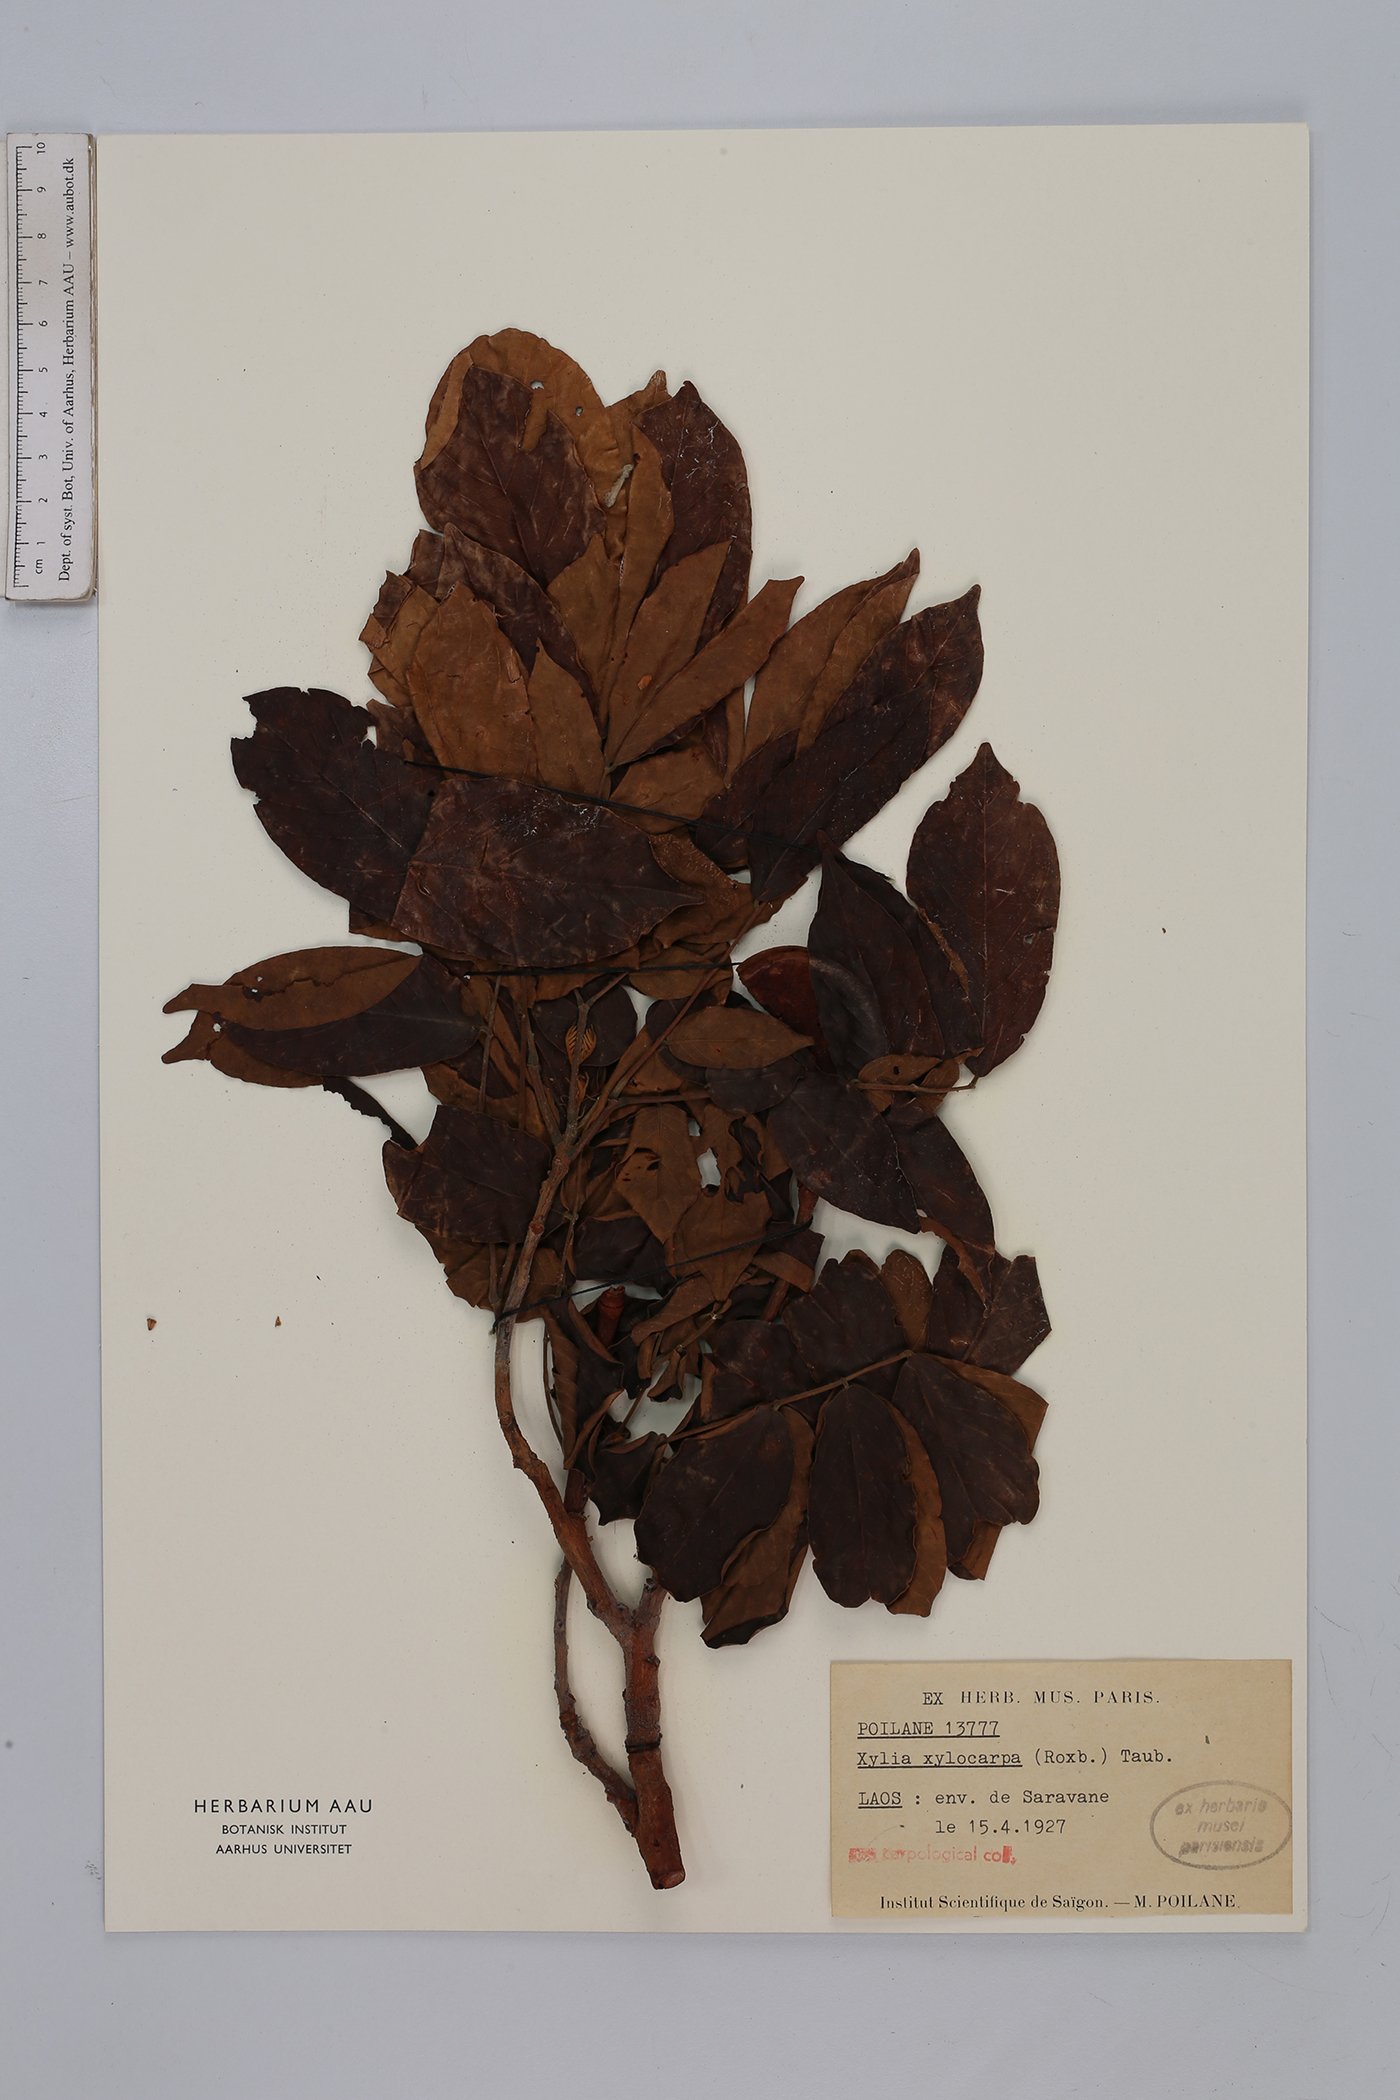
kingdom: Plantae
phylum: Tracheophyta
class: Magnoliopsida
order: Fabales
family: Fabaceae
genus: Xylia
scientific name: Xylia xylocarpa
